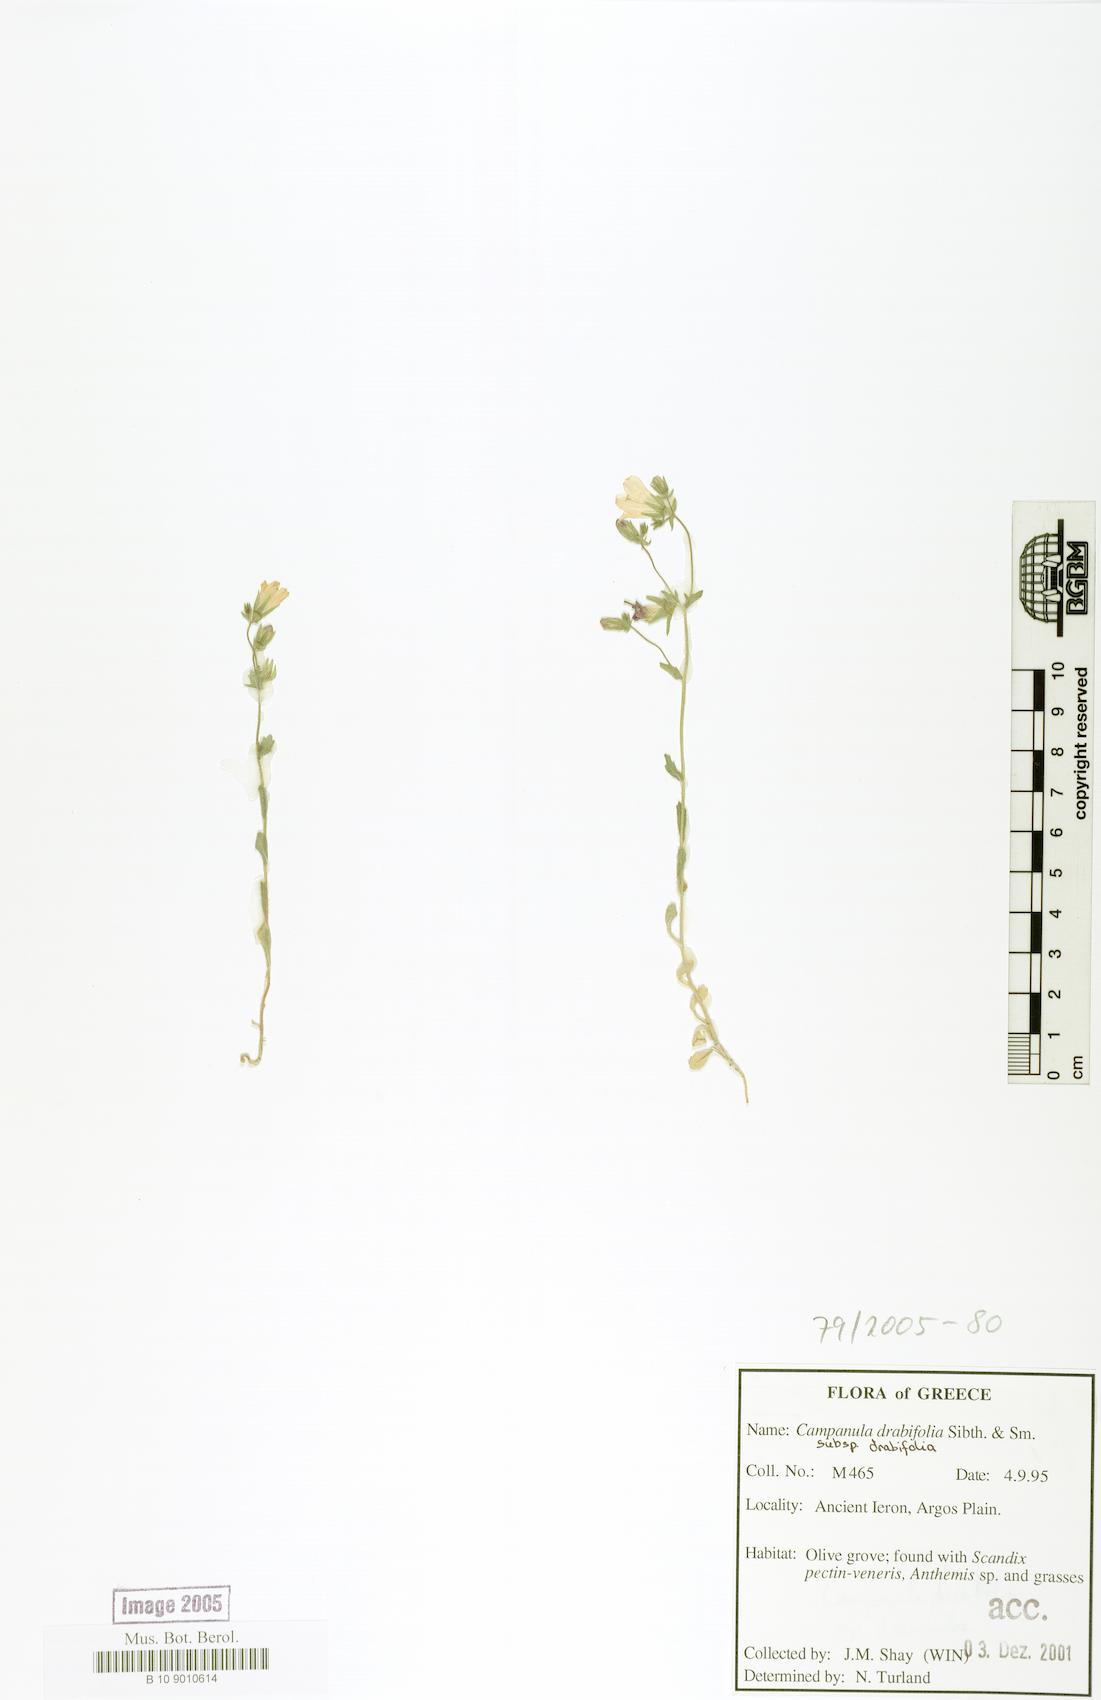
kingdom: Plantae
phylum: Tracheophyta
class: Magnoliopsida
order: Asterales
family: Campanulaceae
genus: Campanula
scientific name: Campanula drabifolia
